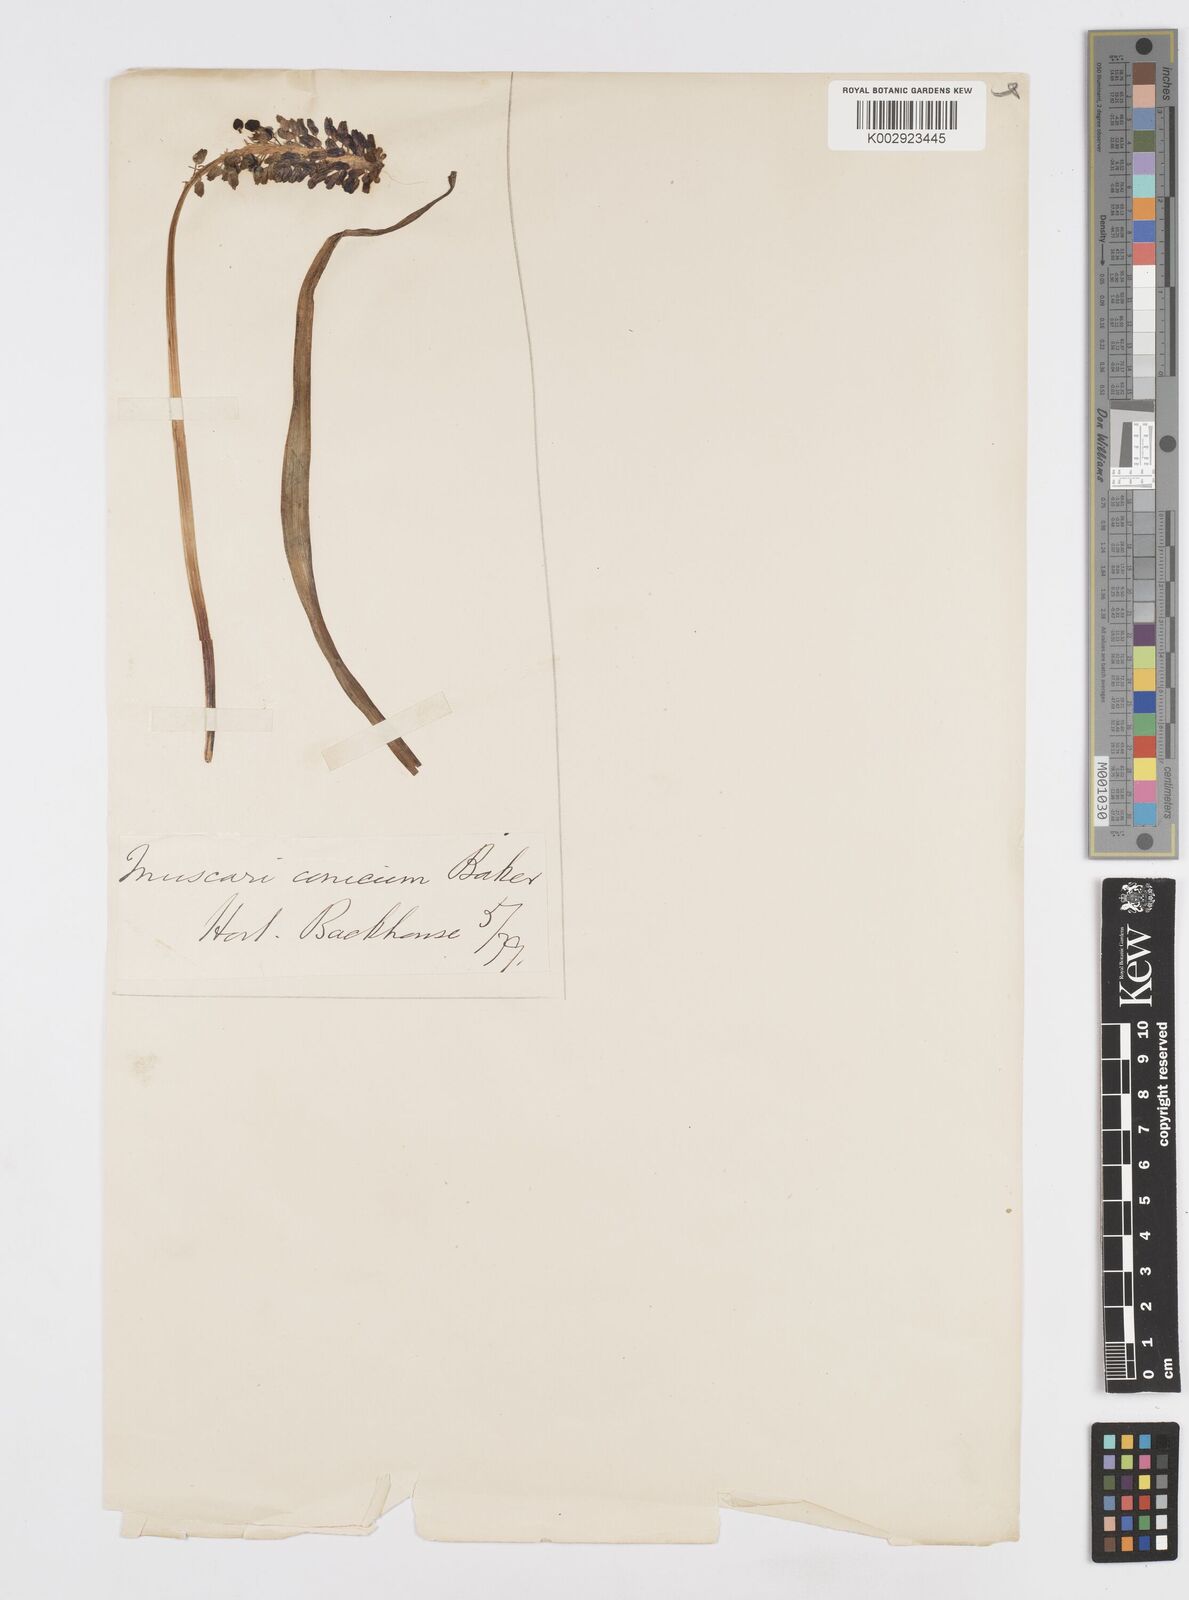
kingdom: Plantae
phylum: Tracheophyta
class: Liliopsida
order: Asparagales
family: Asparagaceae
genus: Muscari
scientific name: Muscari neglectum
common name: Grape-hyacinth
